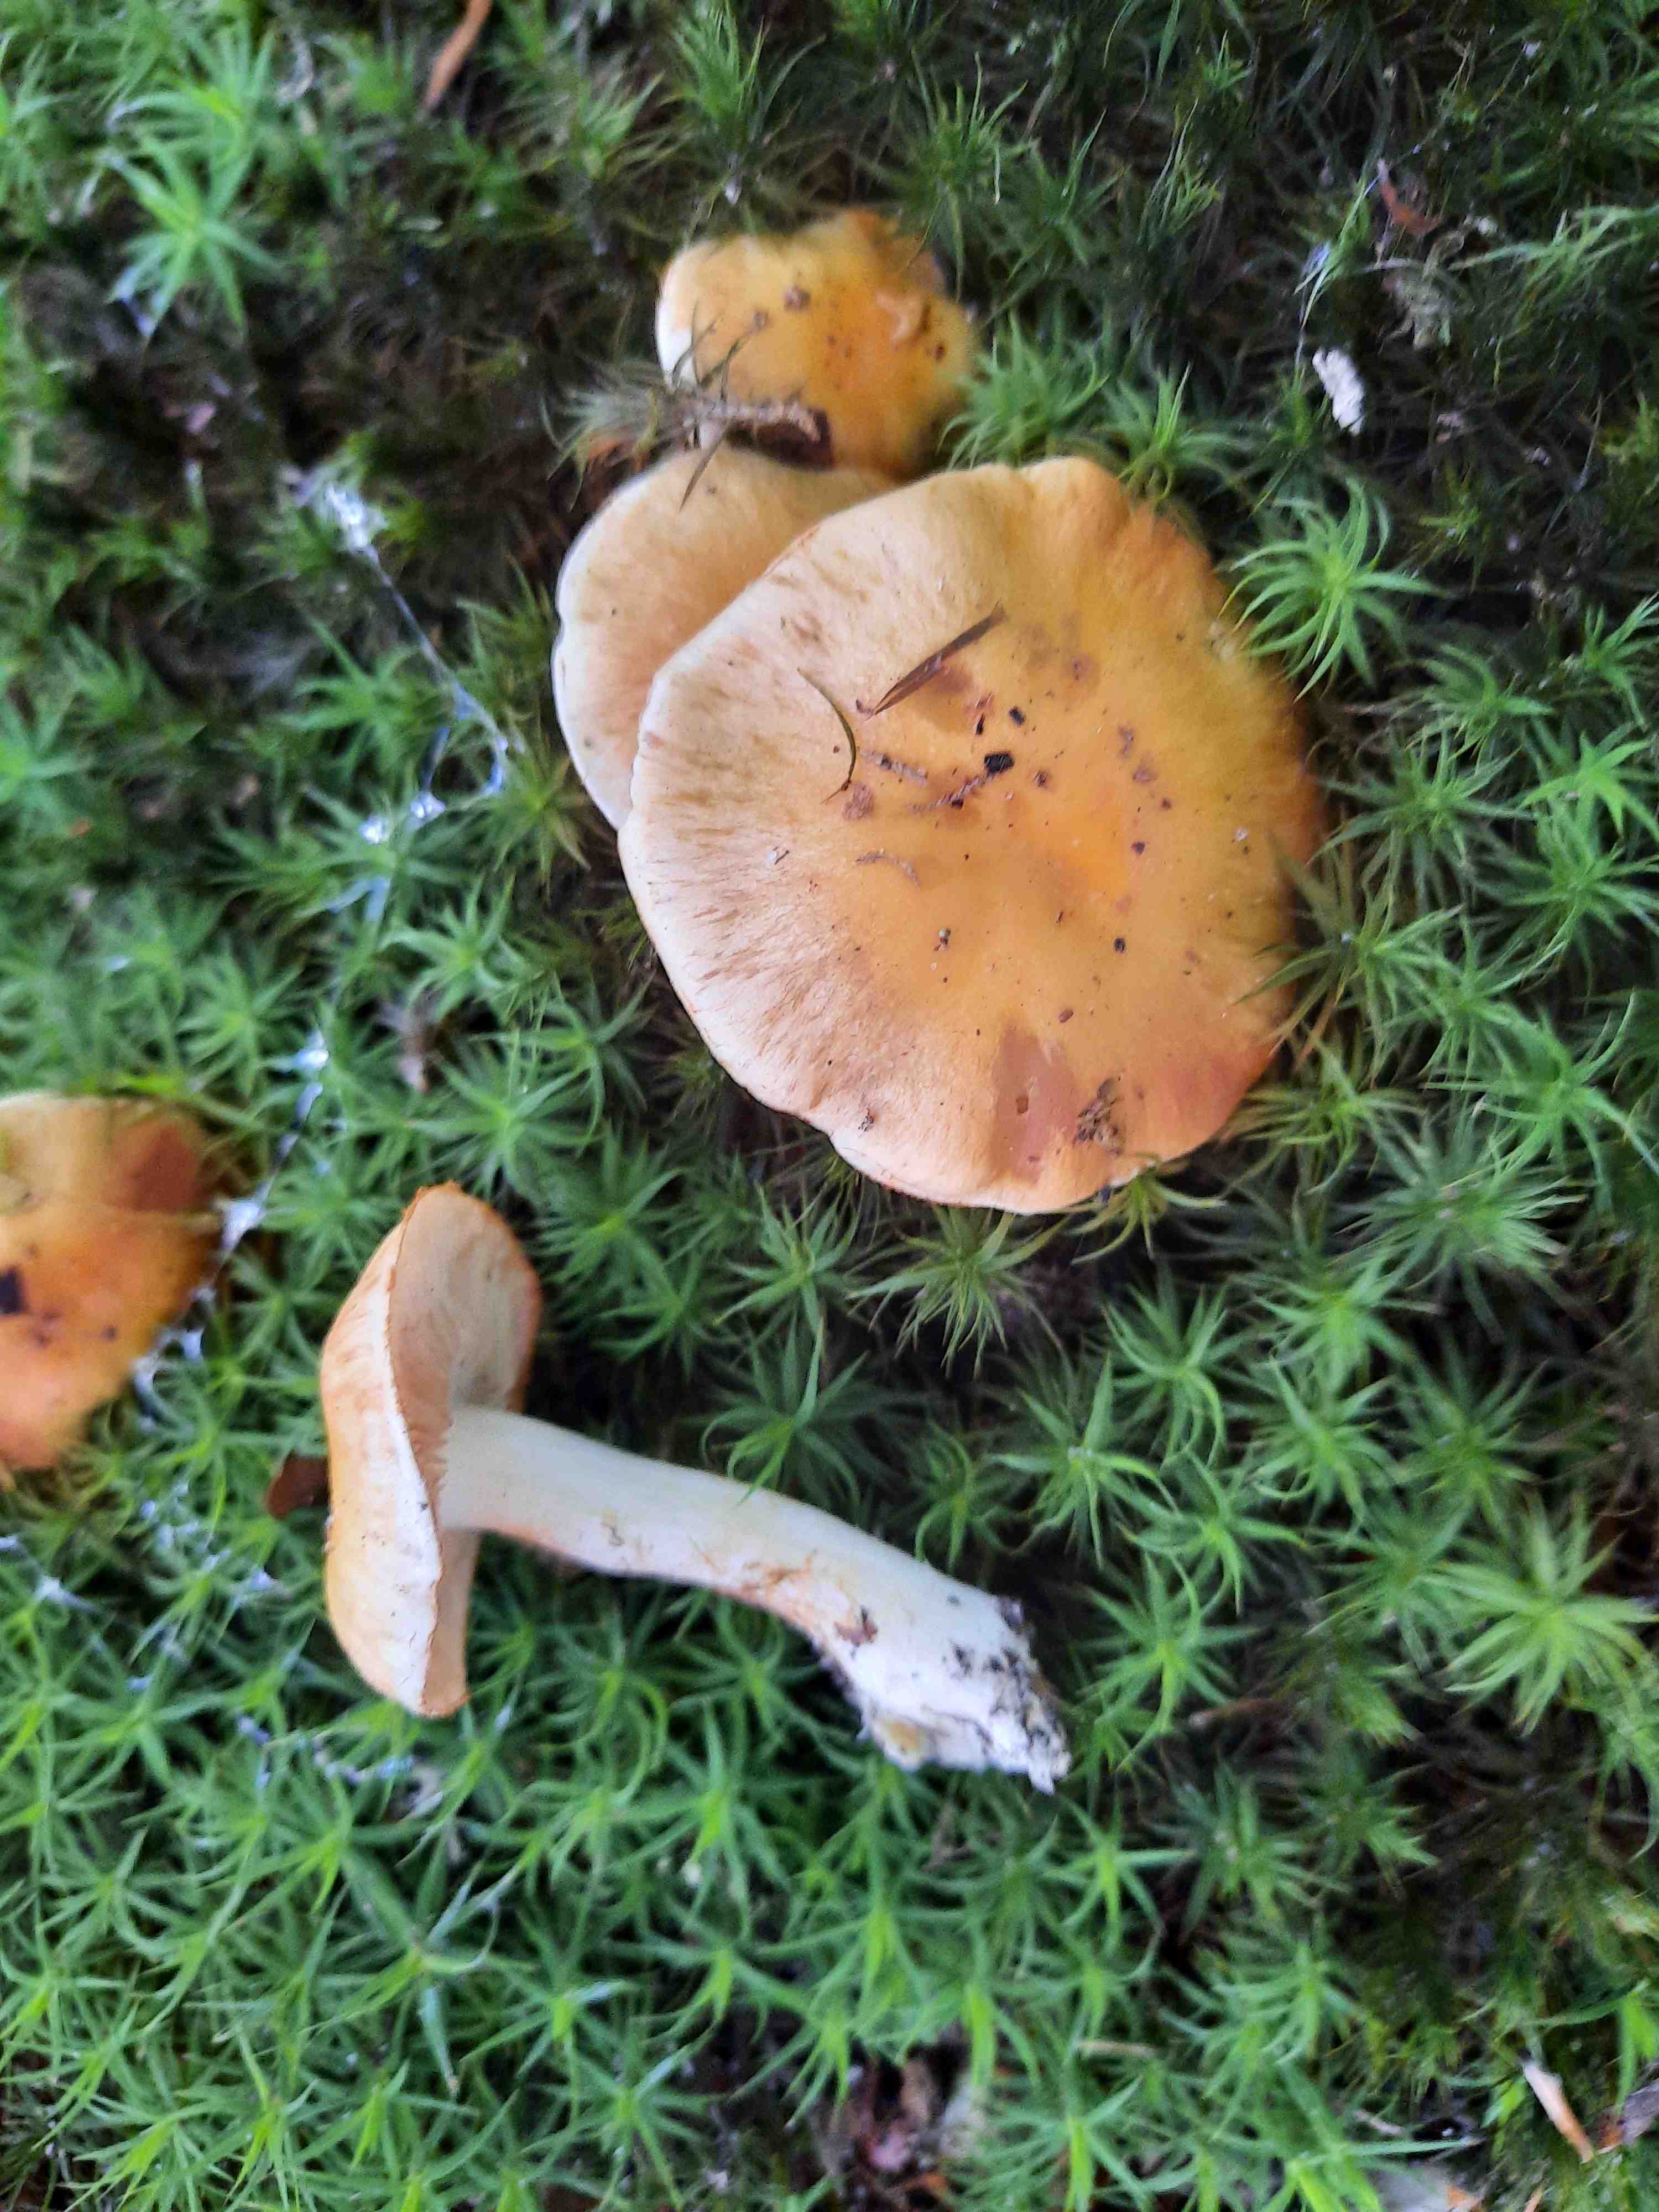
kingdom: Fungi
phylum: Basidiomycota
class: Agaricomycetes
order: Agaricales
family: Cortinariaceae
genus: Thaxterogaster
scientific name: Thaxterogaster
